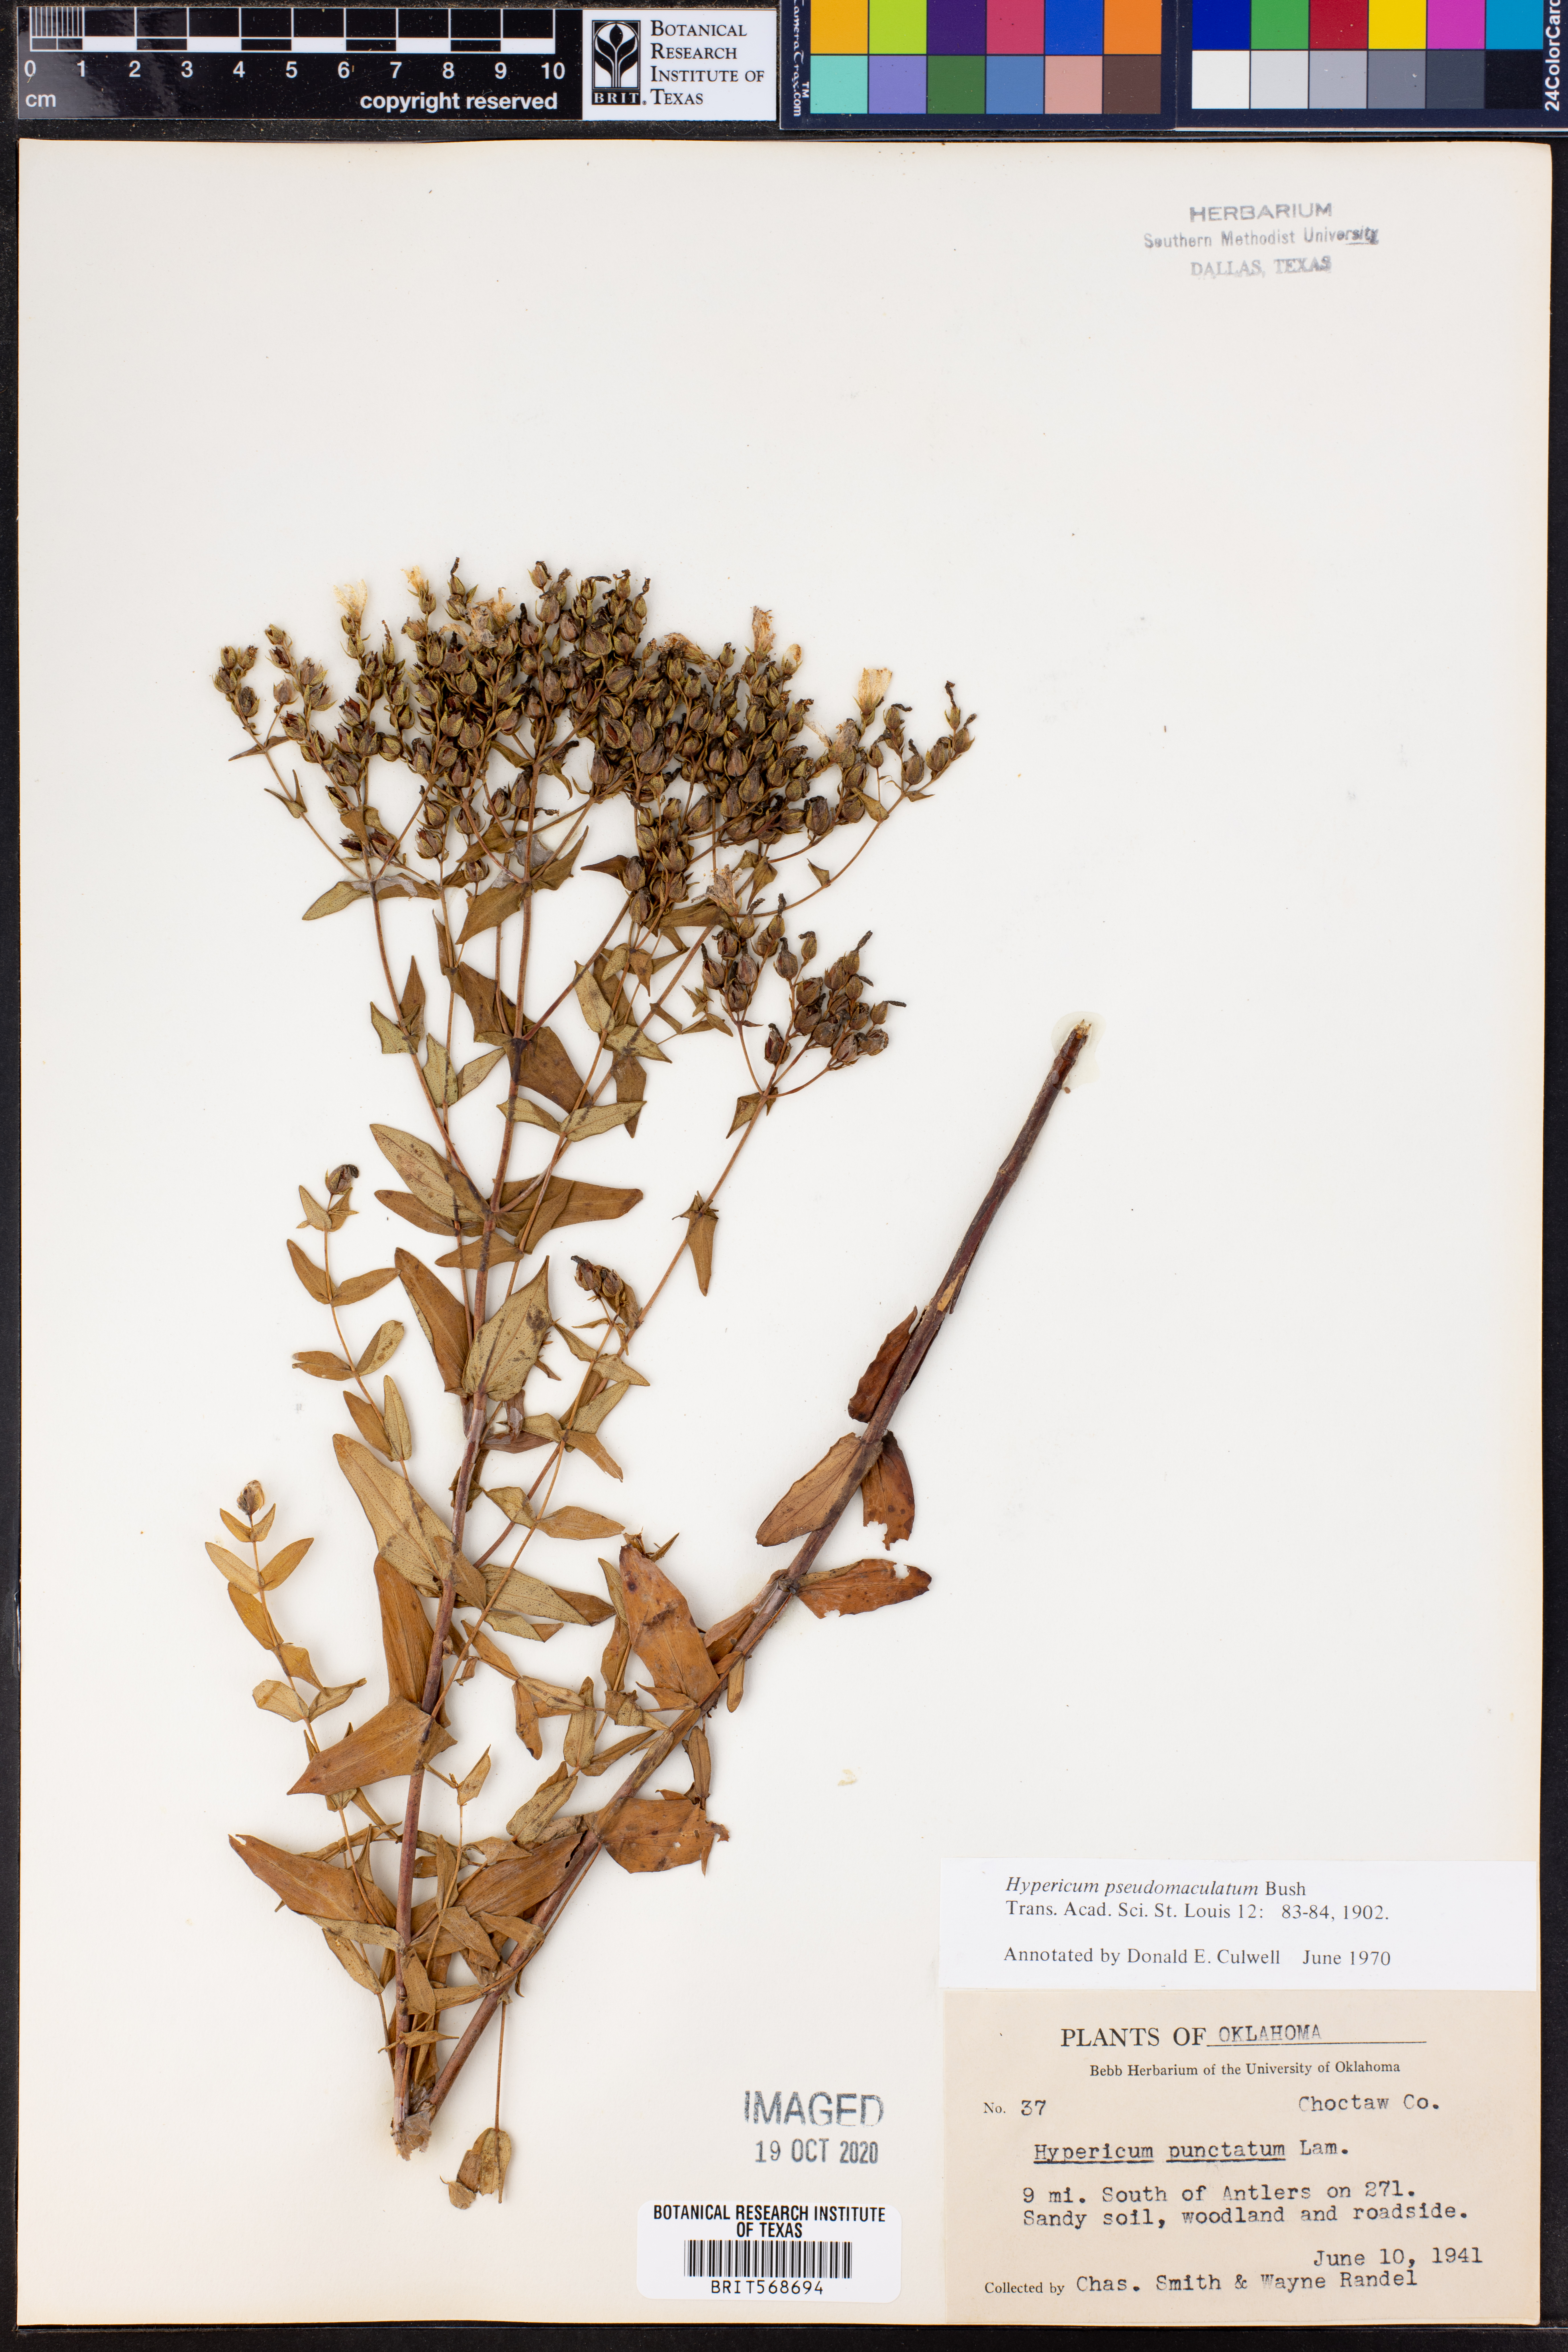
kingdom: Plantae
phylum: Tracheophyta
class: Magnoliopsida
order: Malpighiales
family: Hypericaceae
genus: Hypericum
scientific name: Hypericum pseudomaculatum
